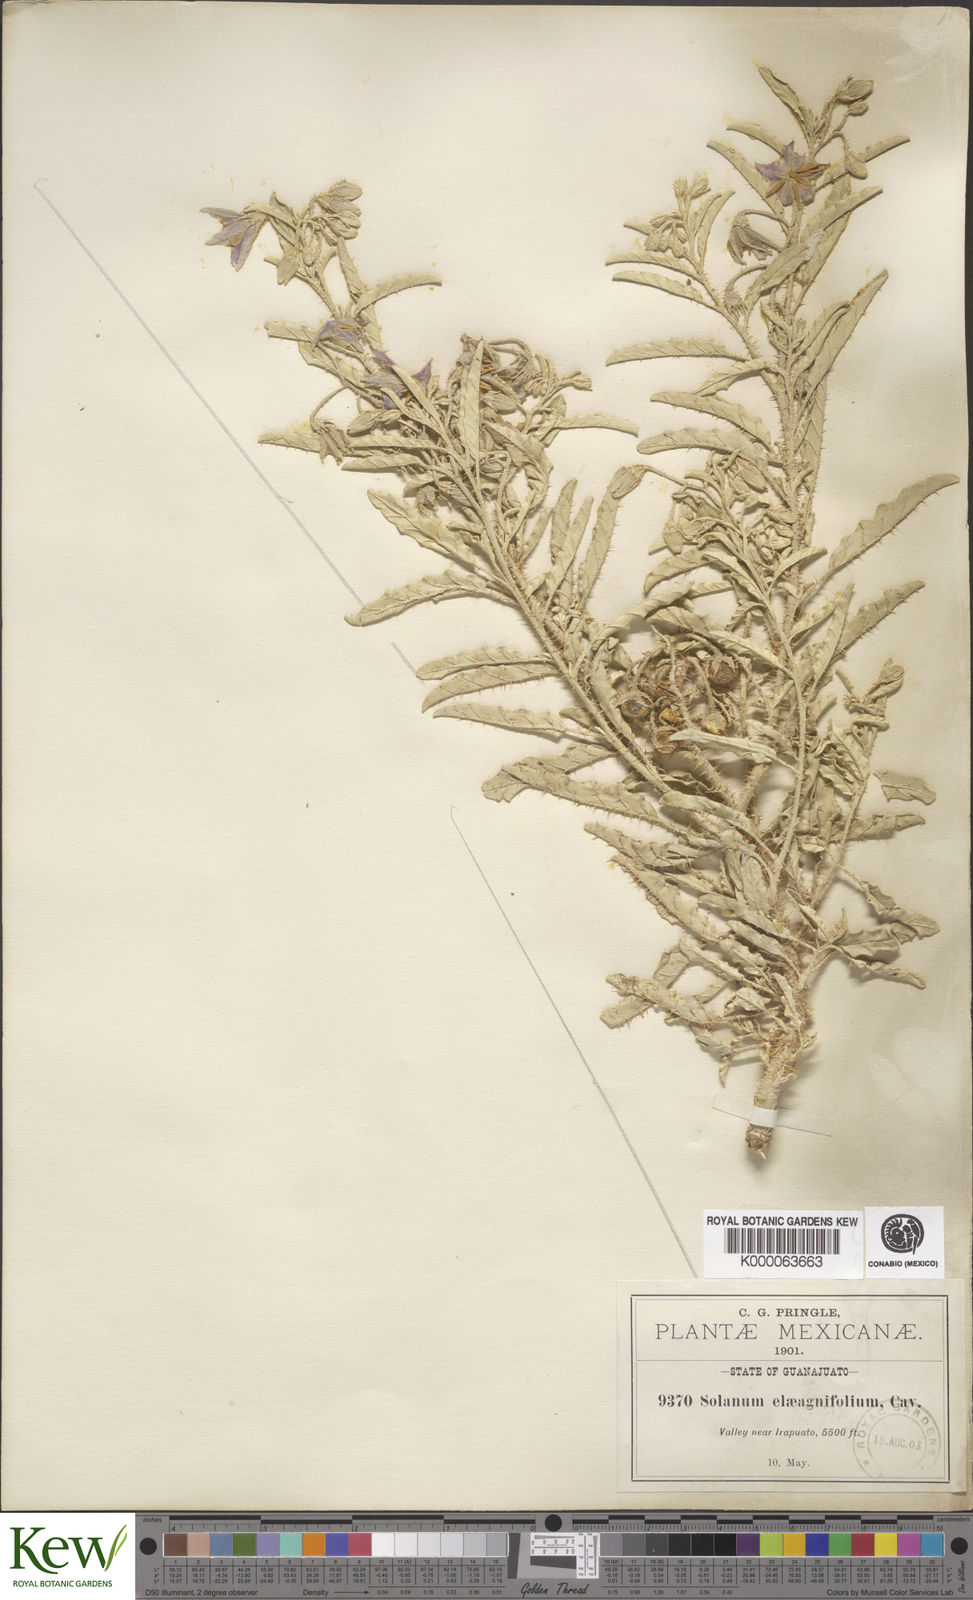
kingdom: Plantae
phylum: Tracheophyta
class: Magnoliopsida
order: Solanales
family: Solanaceae
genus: Solanum
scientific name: Solanum elaeagnifolium
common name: Silverleaf nightshade
